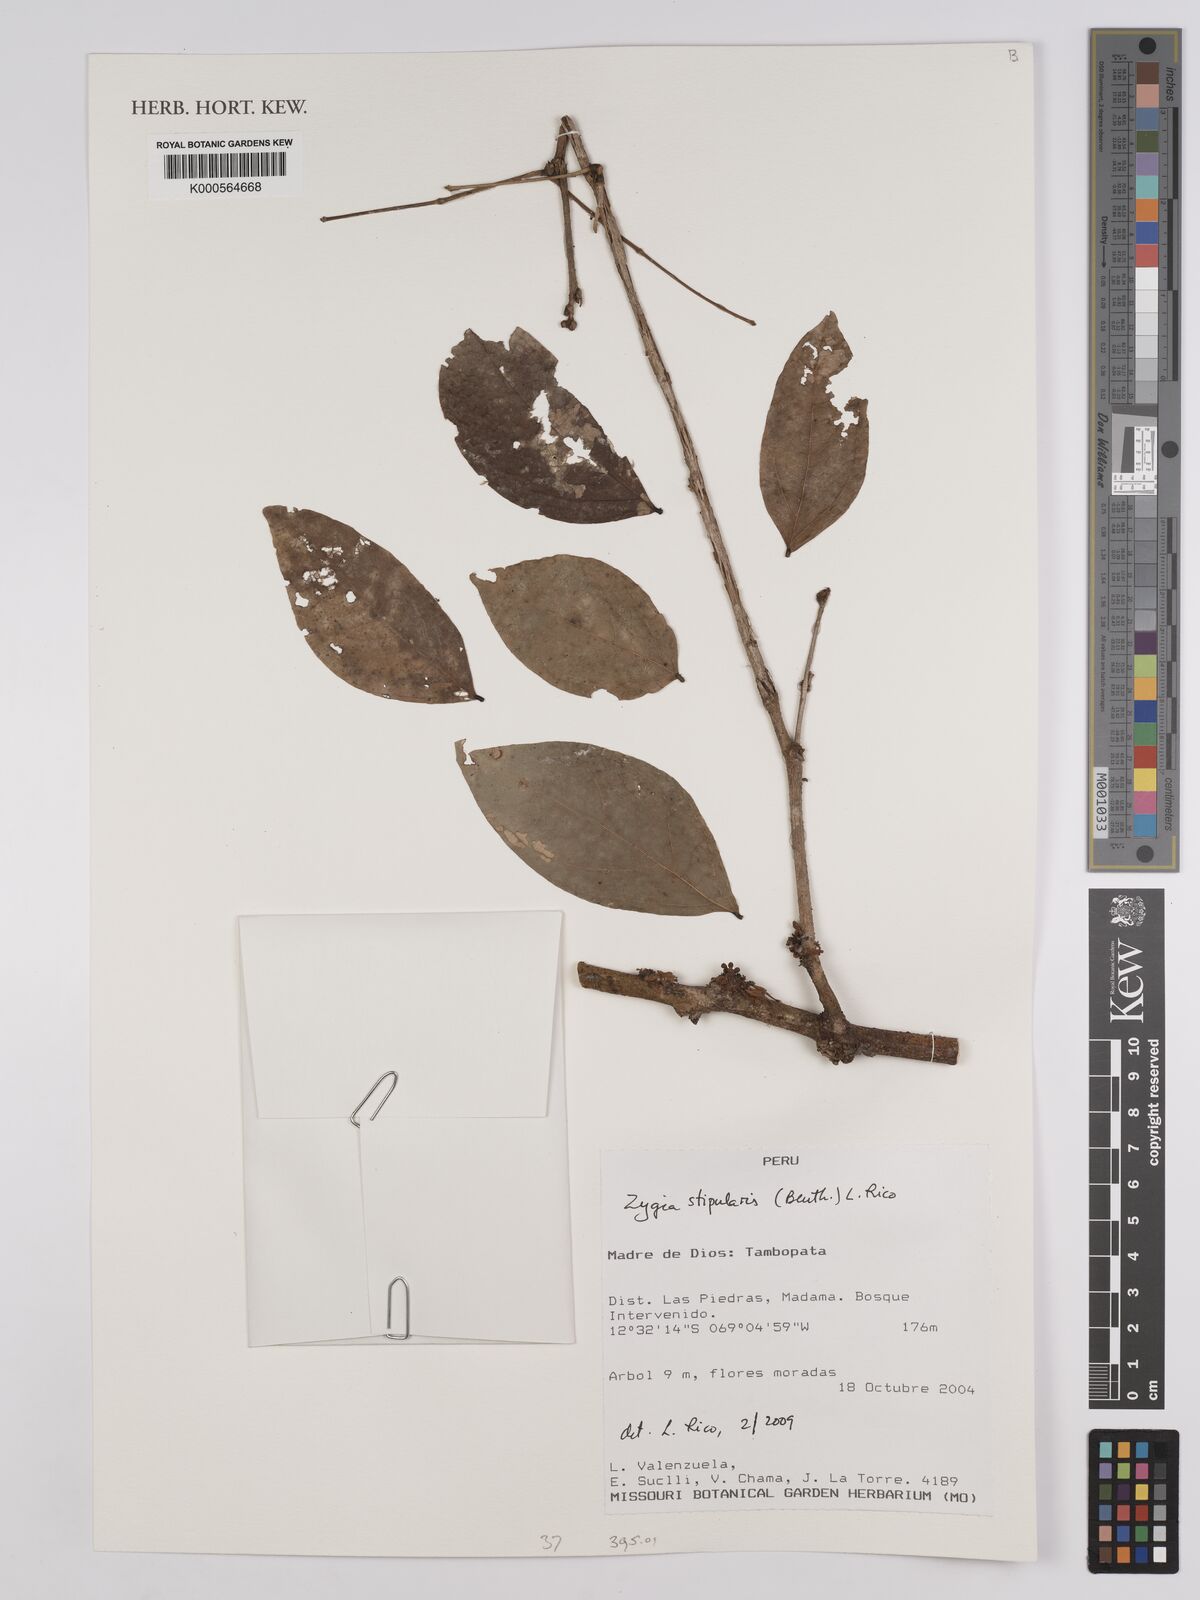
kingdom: Plantae
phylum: Tracheophyta
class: Magnoliopsida
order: Fabales
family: Fabaceae
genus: Zygia
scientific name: Zygia cauliflora
